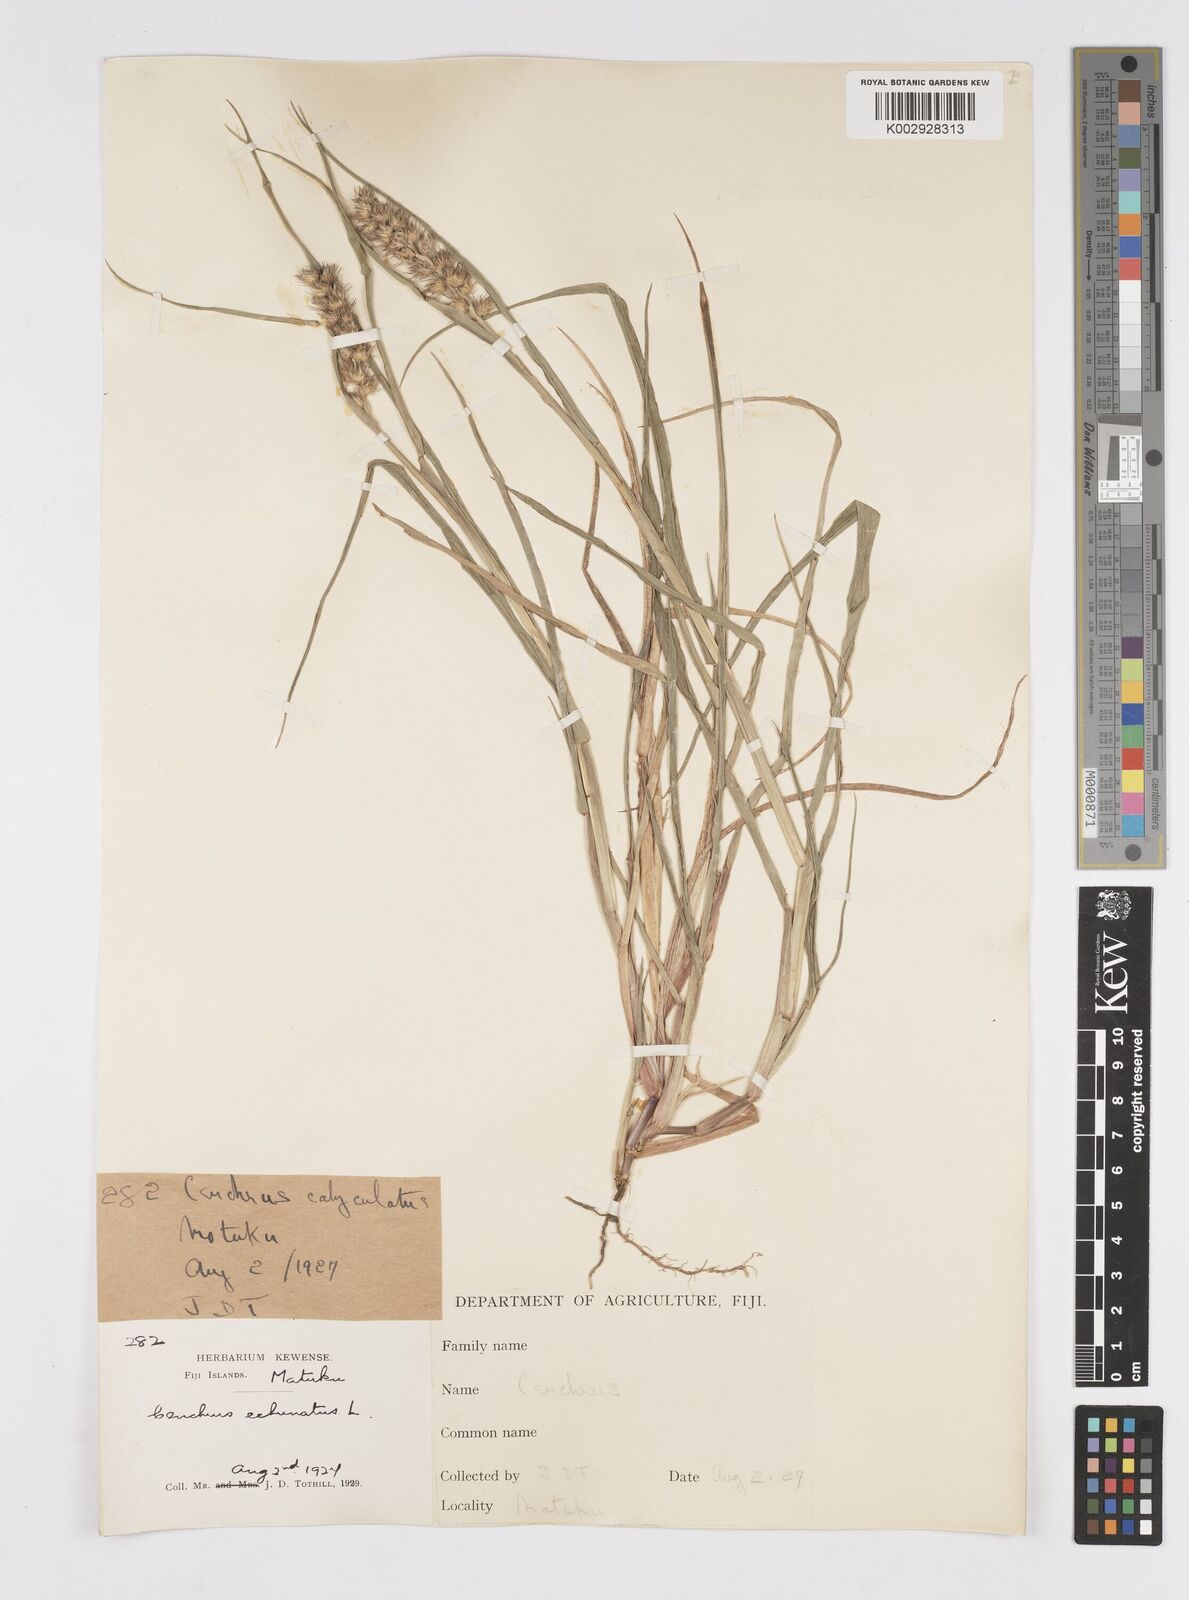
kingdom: Plantae
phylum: Tracheophyta
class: Liliopsida
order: Poales
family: Poaceae
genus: Cenchrus
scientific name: Cenchrus echinatus
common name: Southern sandbur
